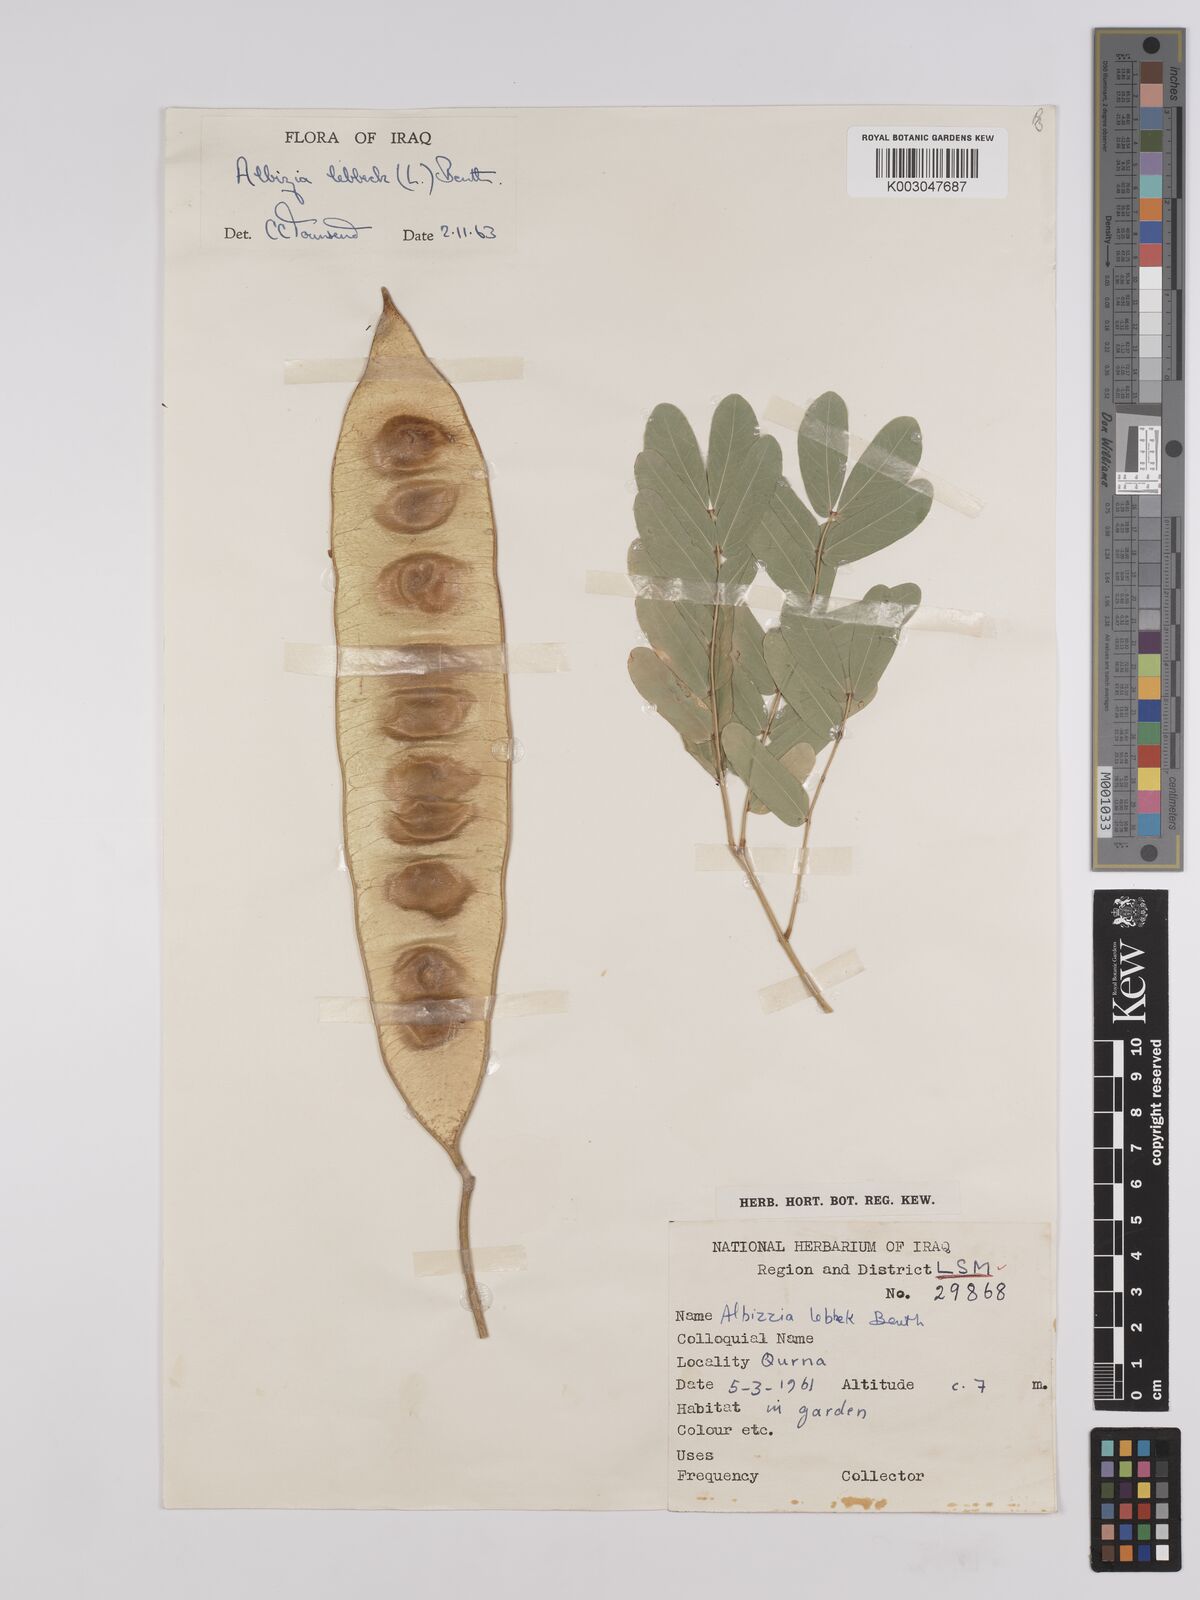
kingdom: Plantae
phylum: Tracheophyta
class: Magnoliopsida
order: Fabales
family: Fabaceae
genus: Albizia
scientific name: Albizia lebbeck
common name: Woman's tongue
